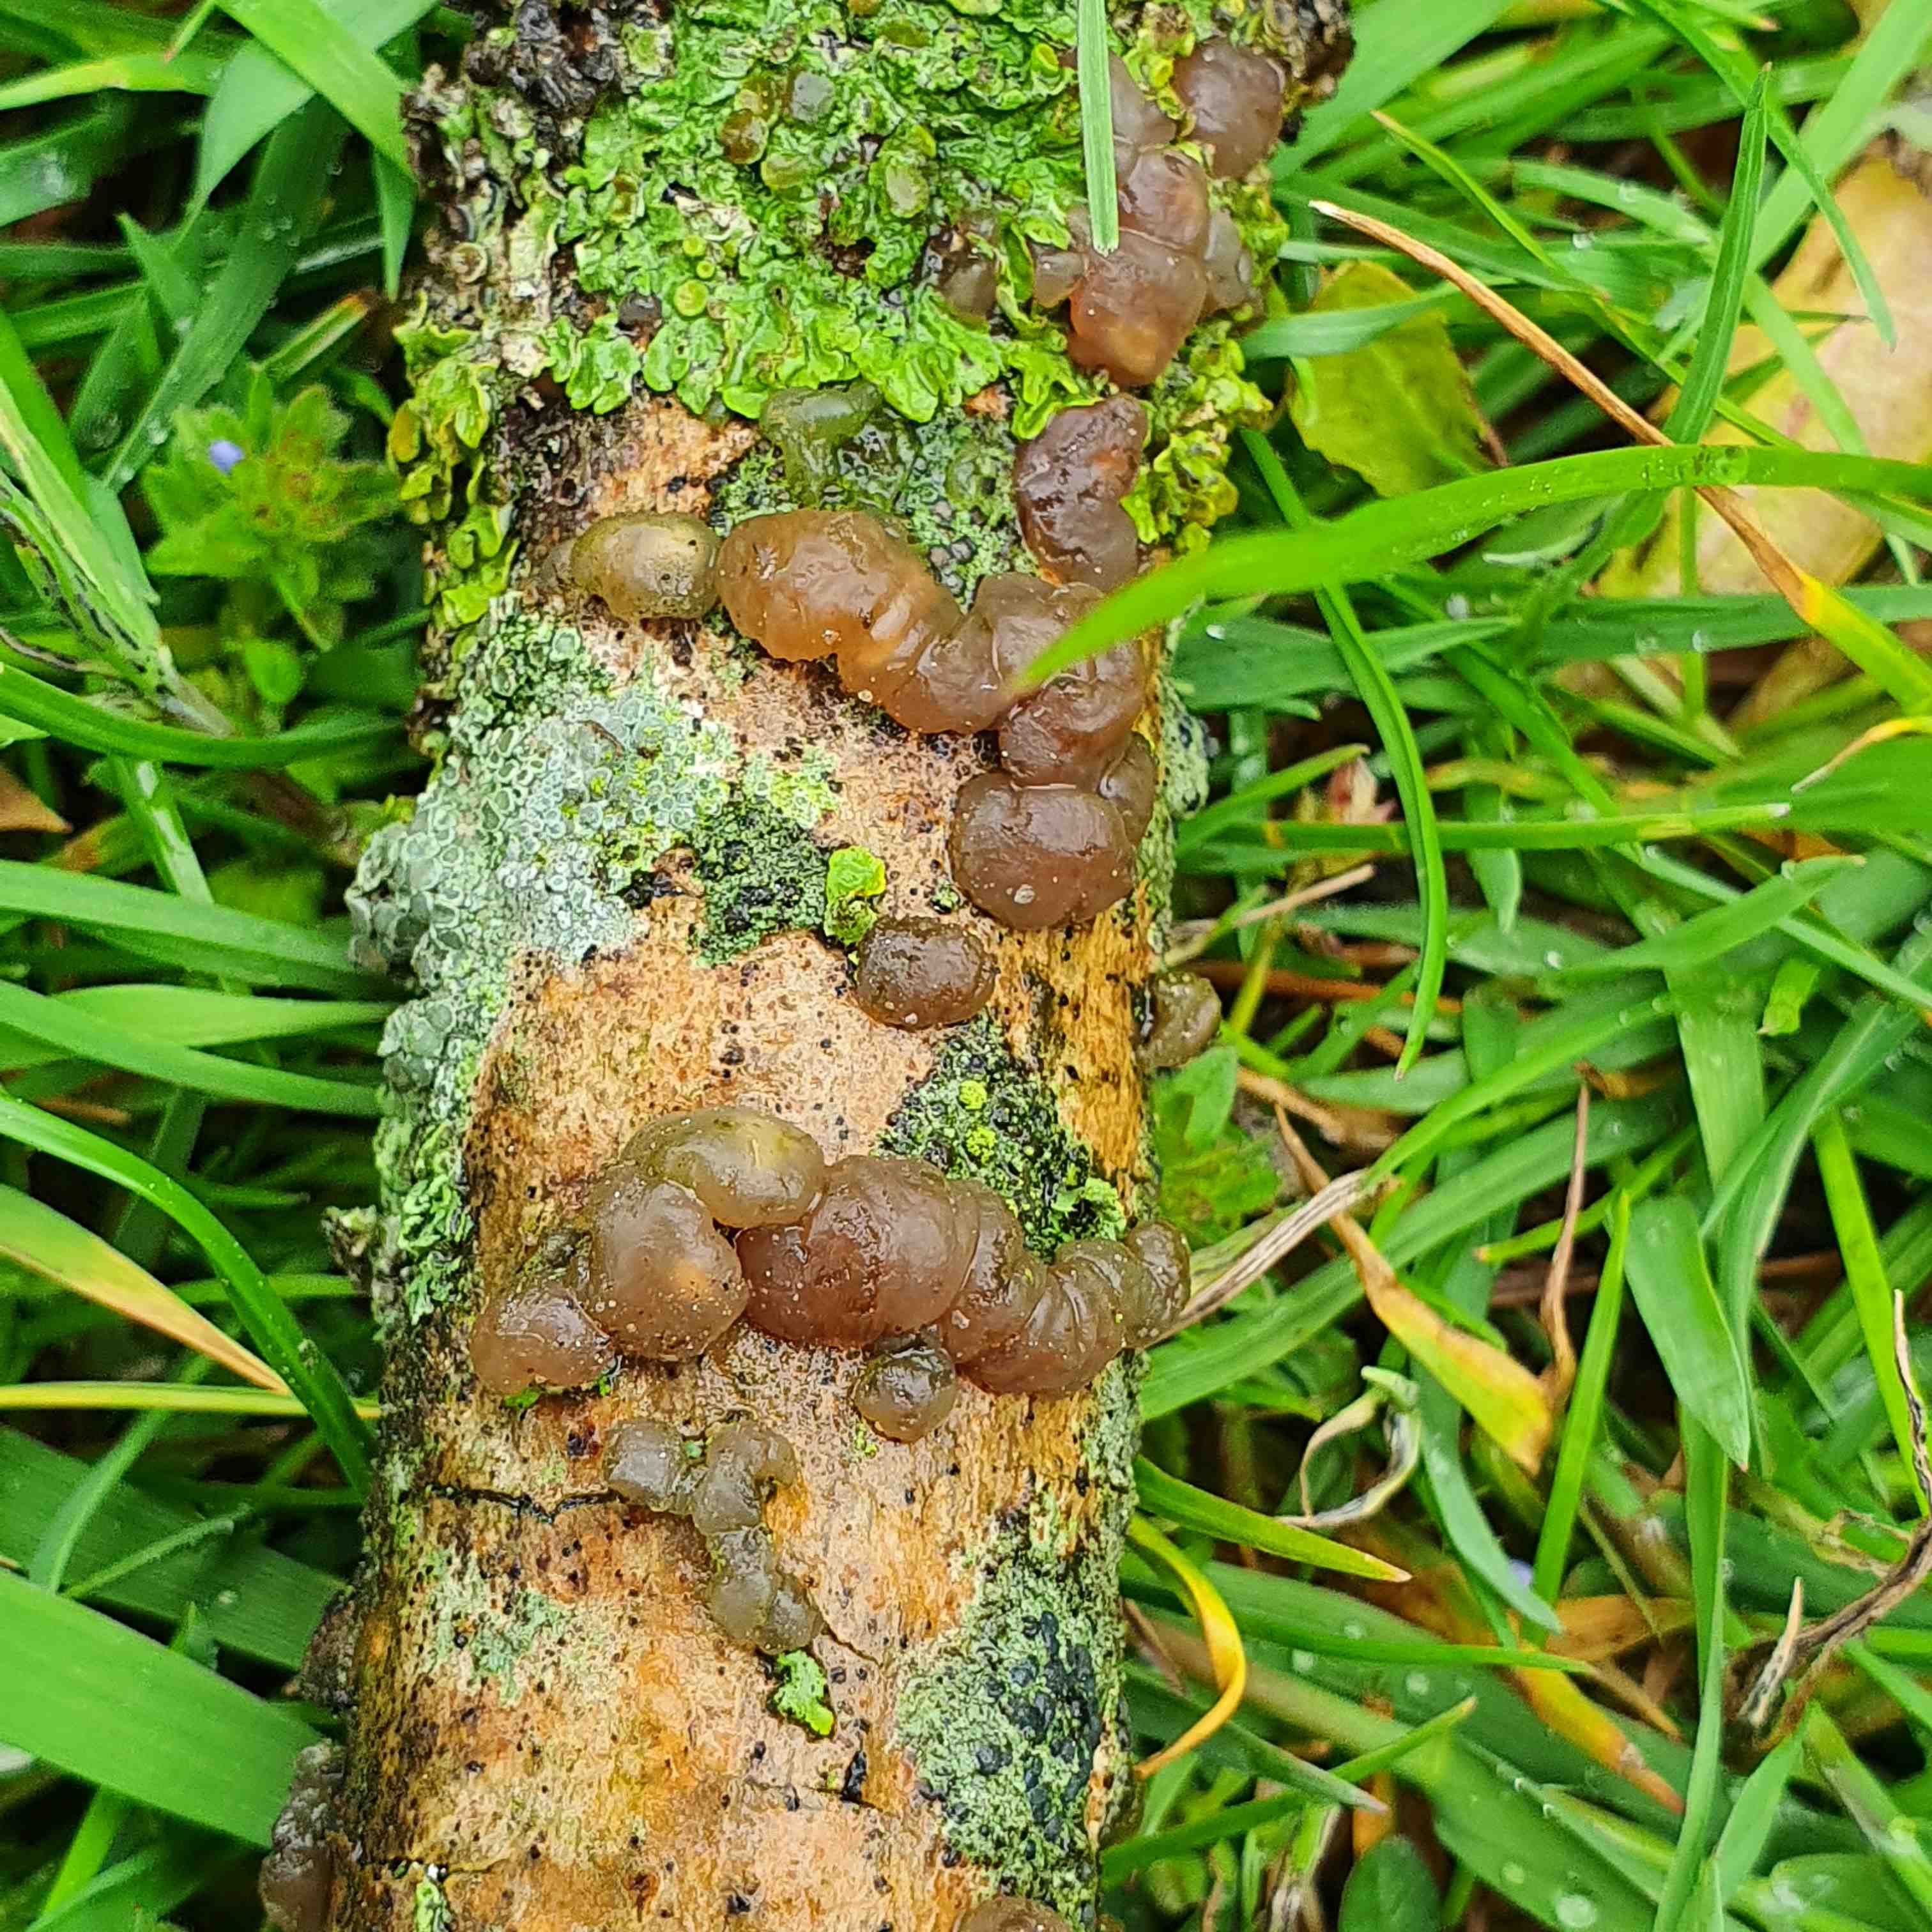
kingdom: Fungi
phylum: Basidiomycota
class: Agaricomycetes
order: Auriculariales
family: Hyaloriaceae
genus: Myxarium
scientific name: Myxarium hyalinum
